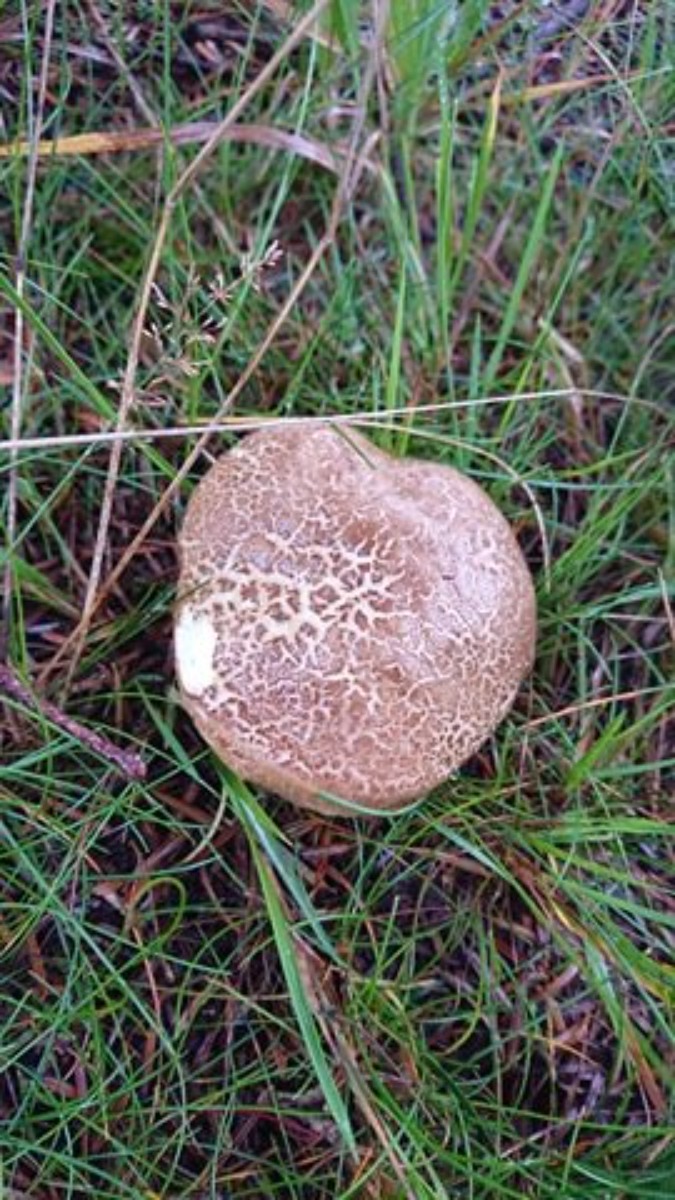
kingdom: Fungi
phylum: Basidiomycota
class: Agaricomycetes
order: Boletales
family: Boletaceae
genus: Xerocomellus
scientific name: Xerocomellus chrysenteron
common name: rødsprukken rørhat
